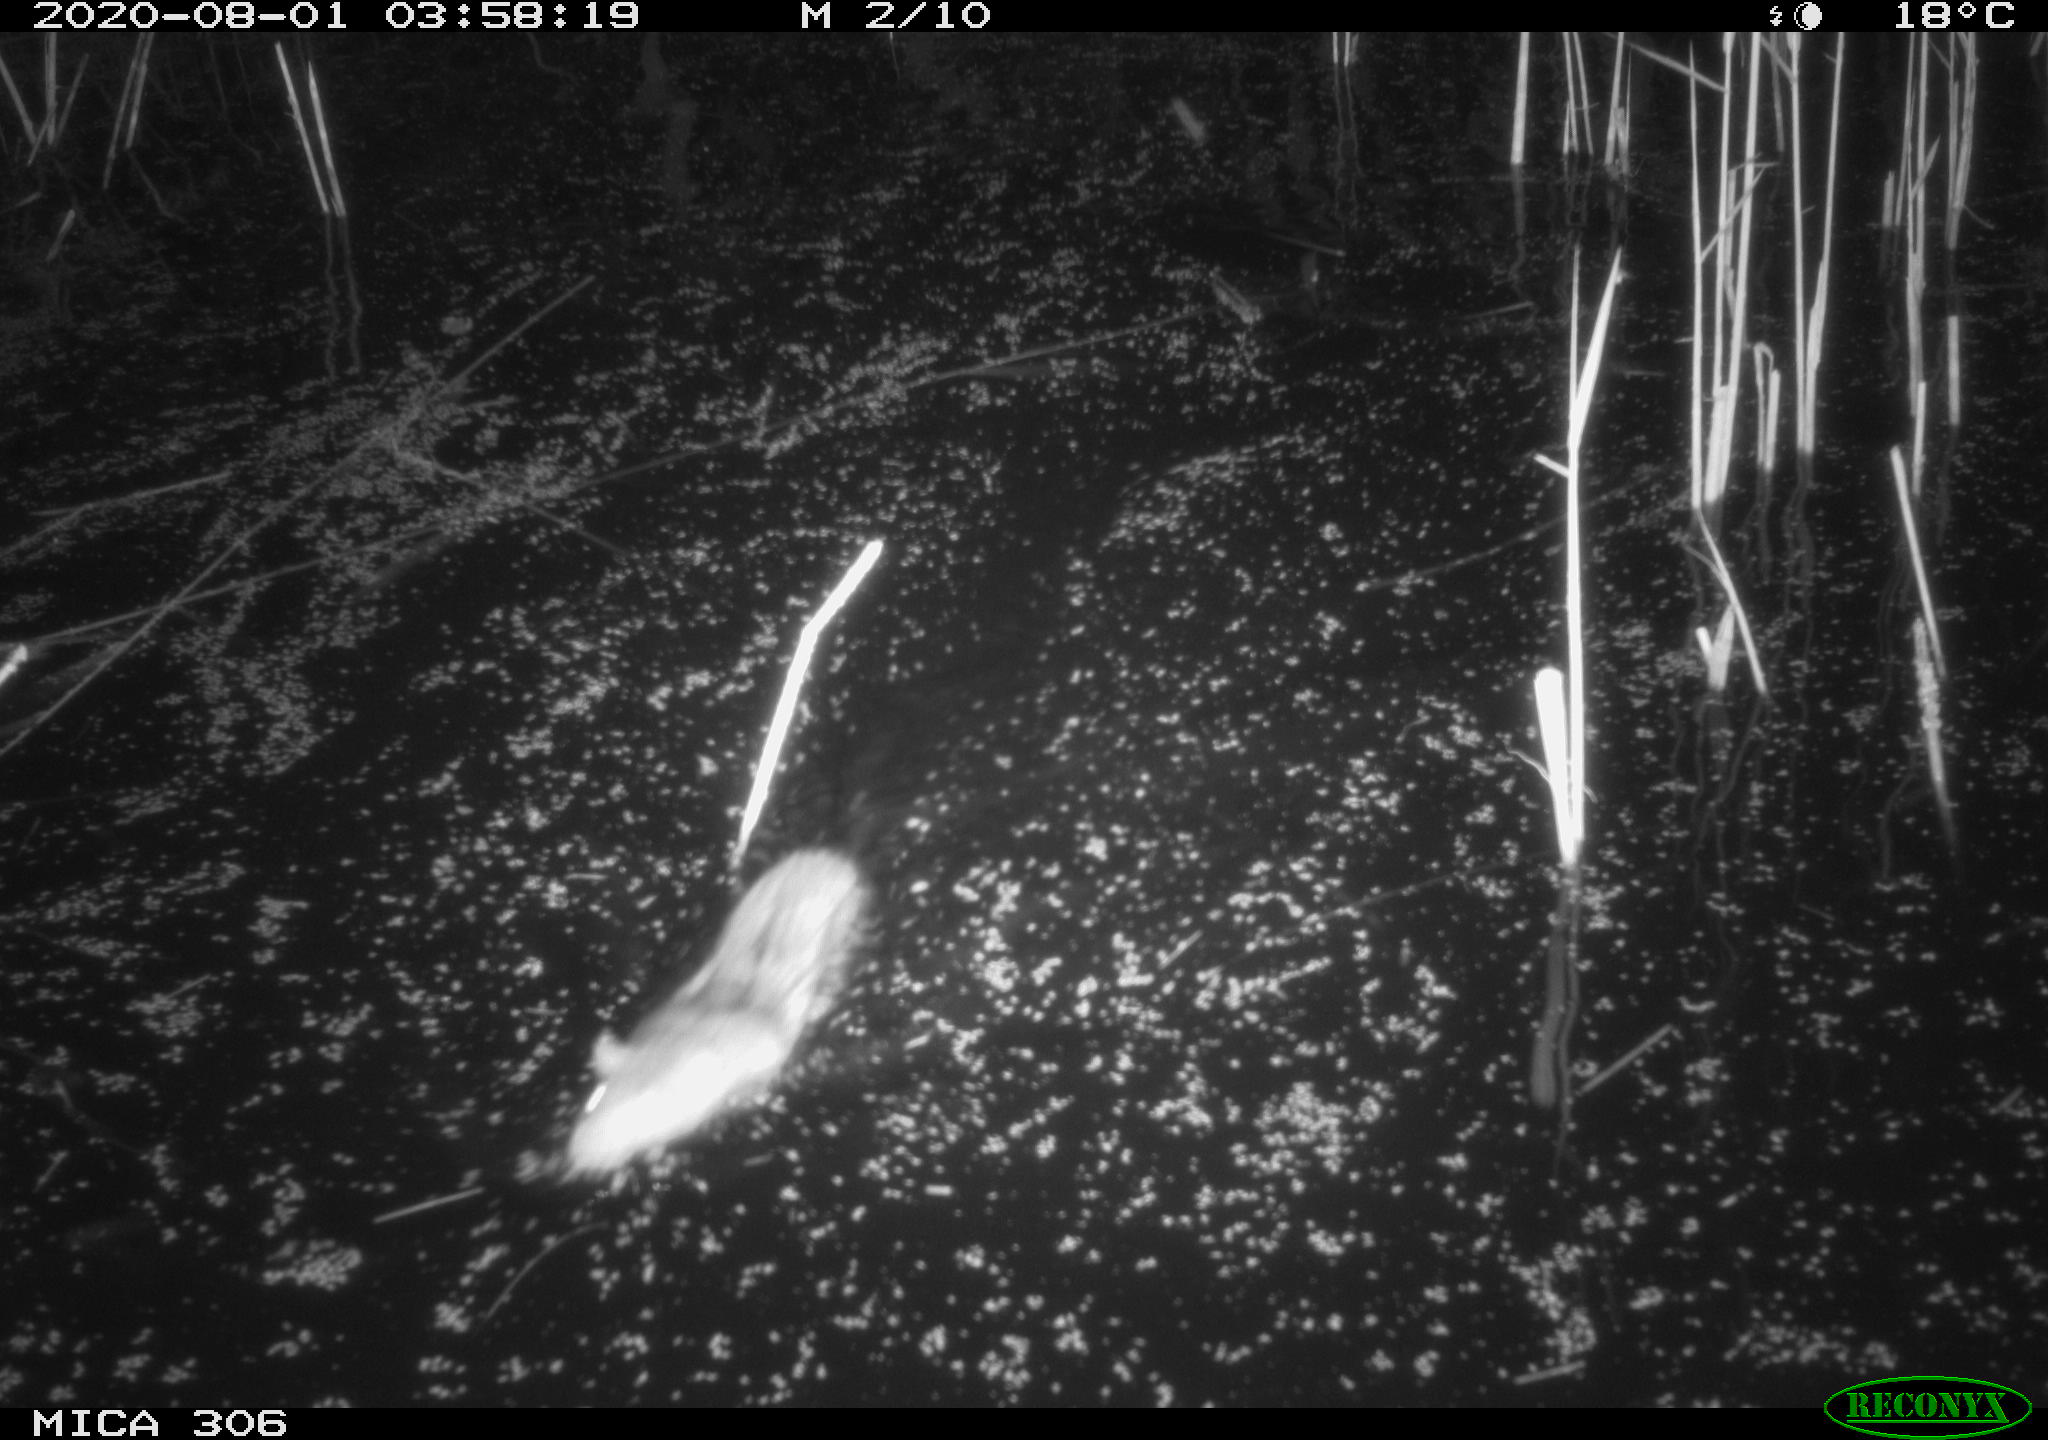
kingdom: Animalia
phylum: Chordata
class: Mammalia
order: Rodentia
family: Cricetidae
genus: Ondatra
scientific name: Ondatra zibethicus
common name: Muskrat
